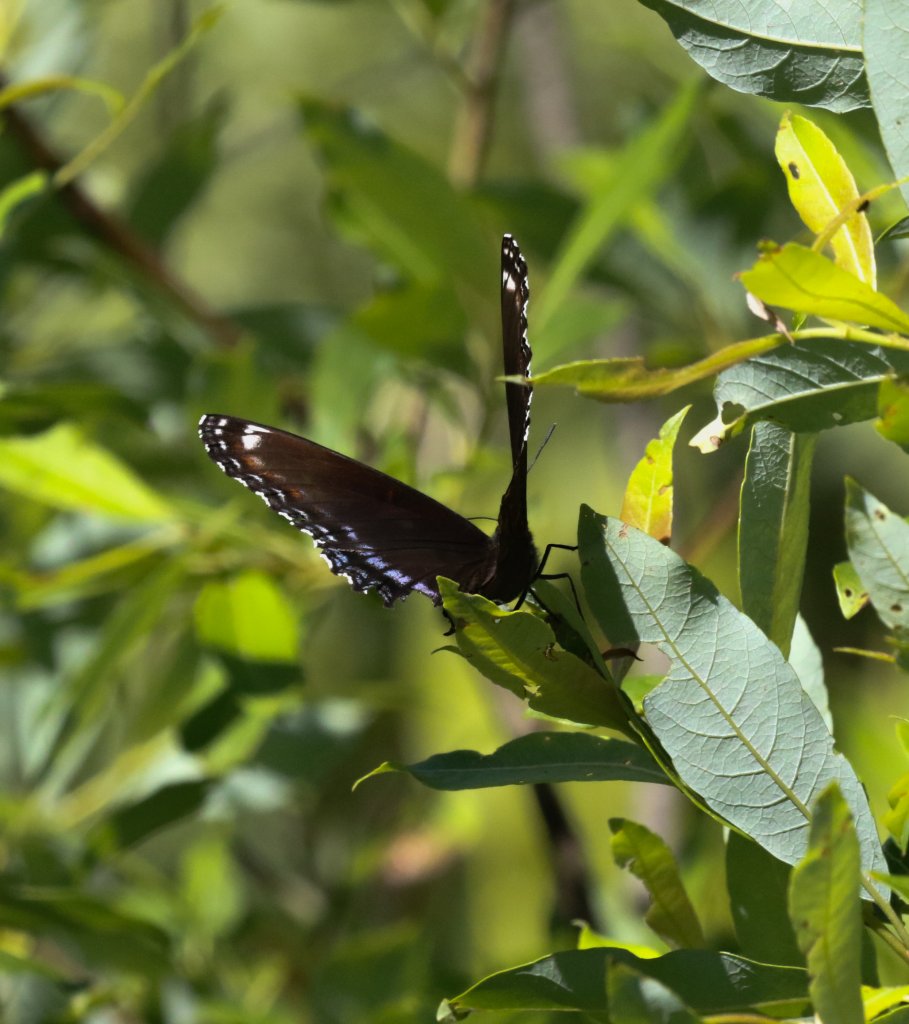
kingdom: Animalia
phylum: Arthropoda
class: Insecta
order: Lepidoptera
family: Nymphalidae
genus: Limenitis
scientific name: Limenitis astyanax
